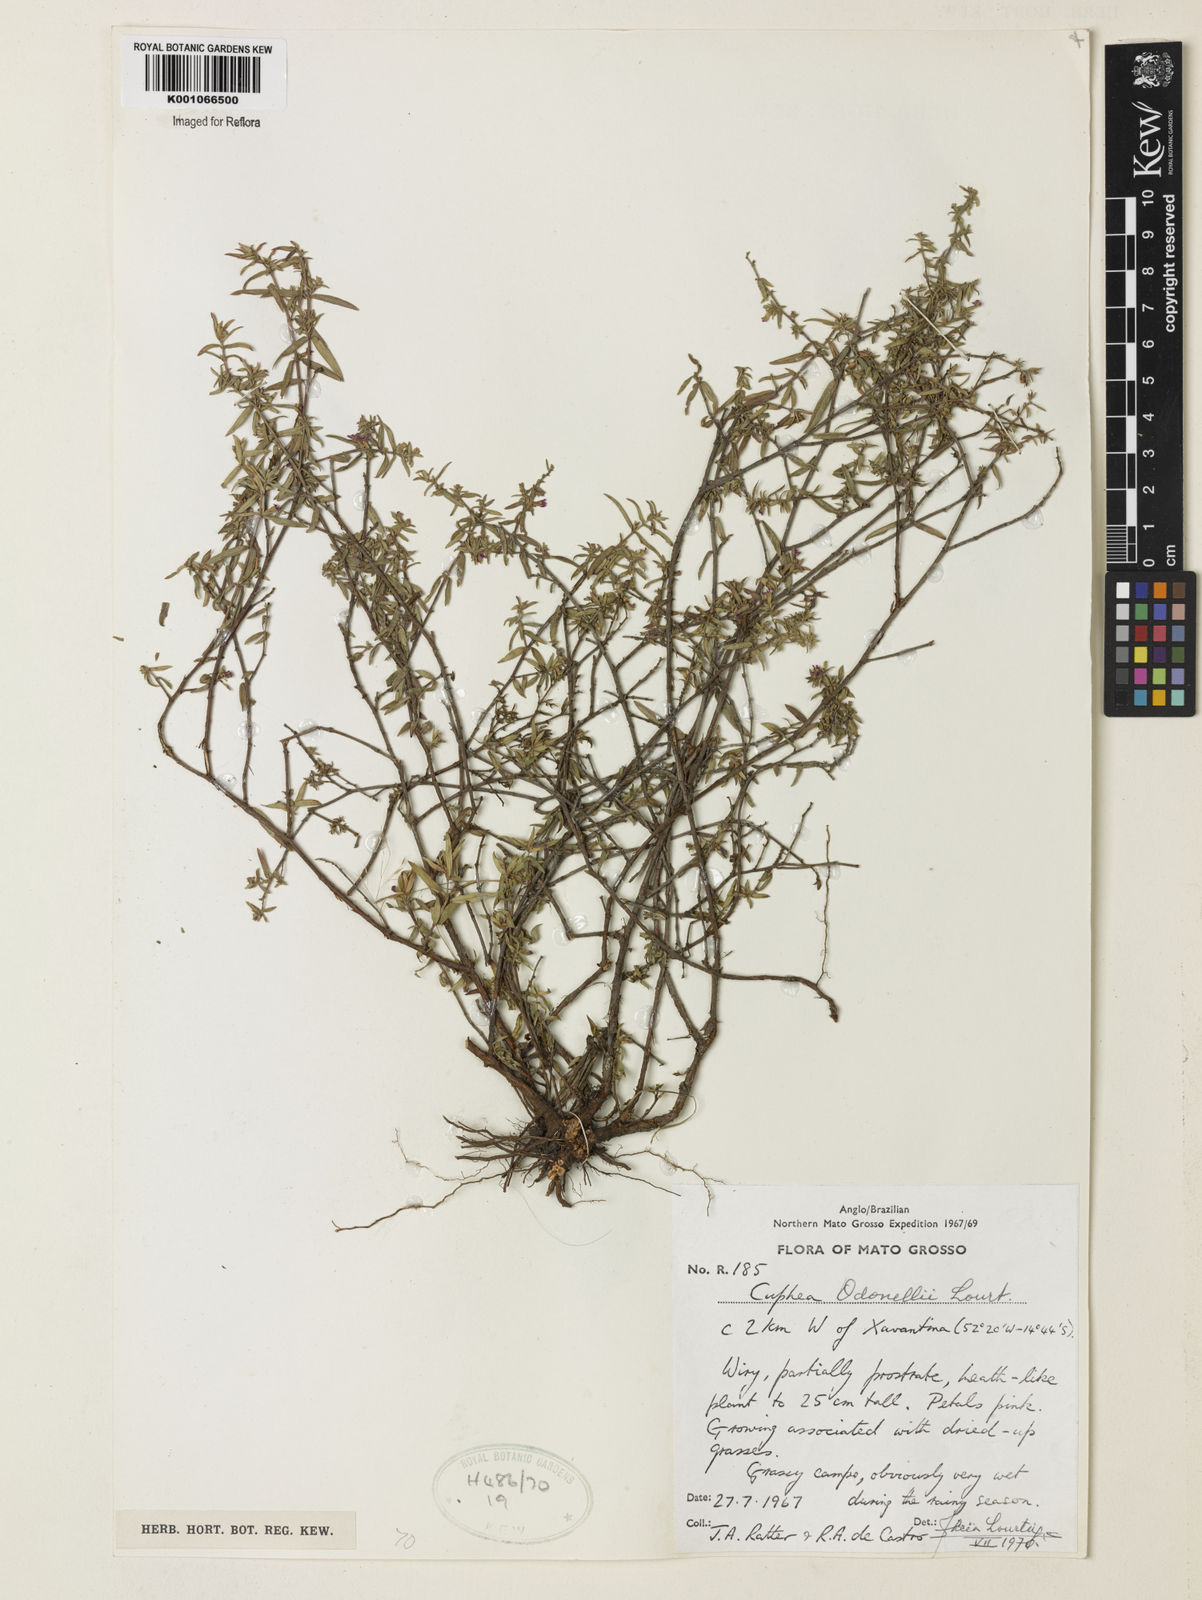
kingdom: Plantae
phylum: Tracheophyta
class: Magnoliopsida
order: Myrtales
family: Lythraceae
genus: Cuphea
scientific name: Cuphea odonellii
